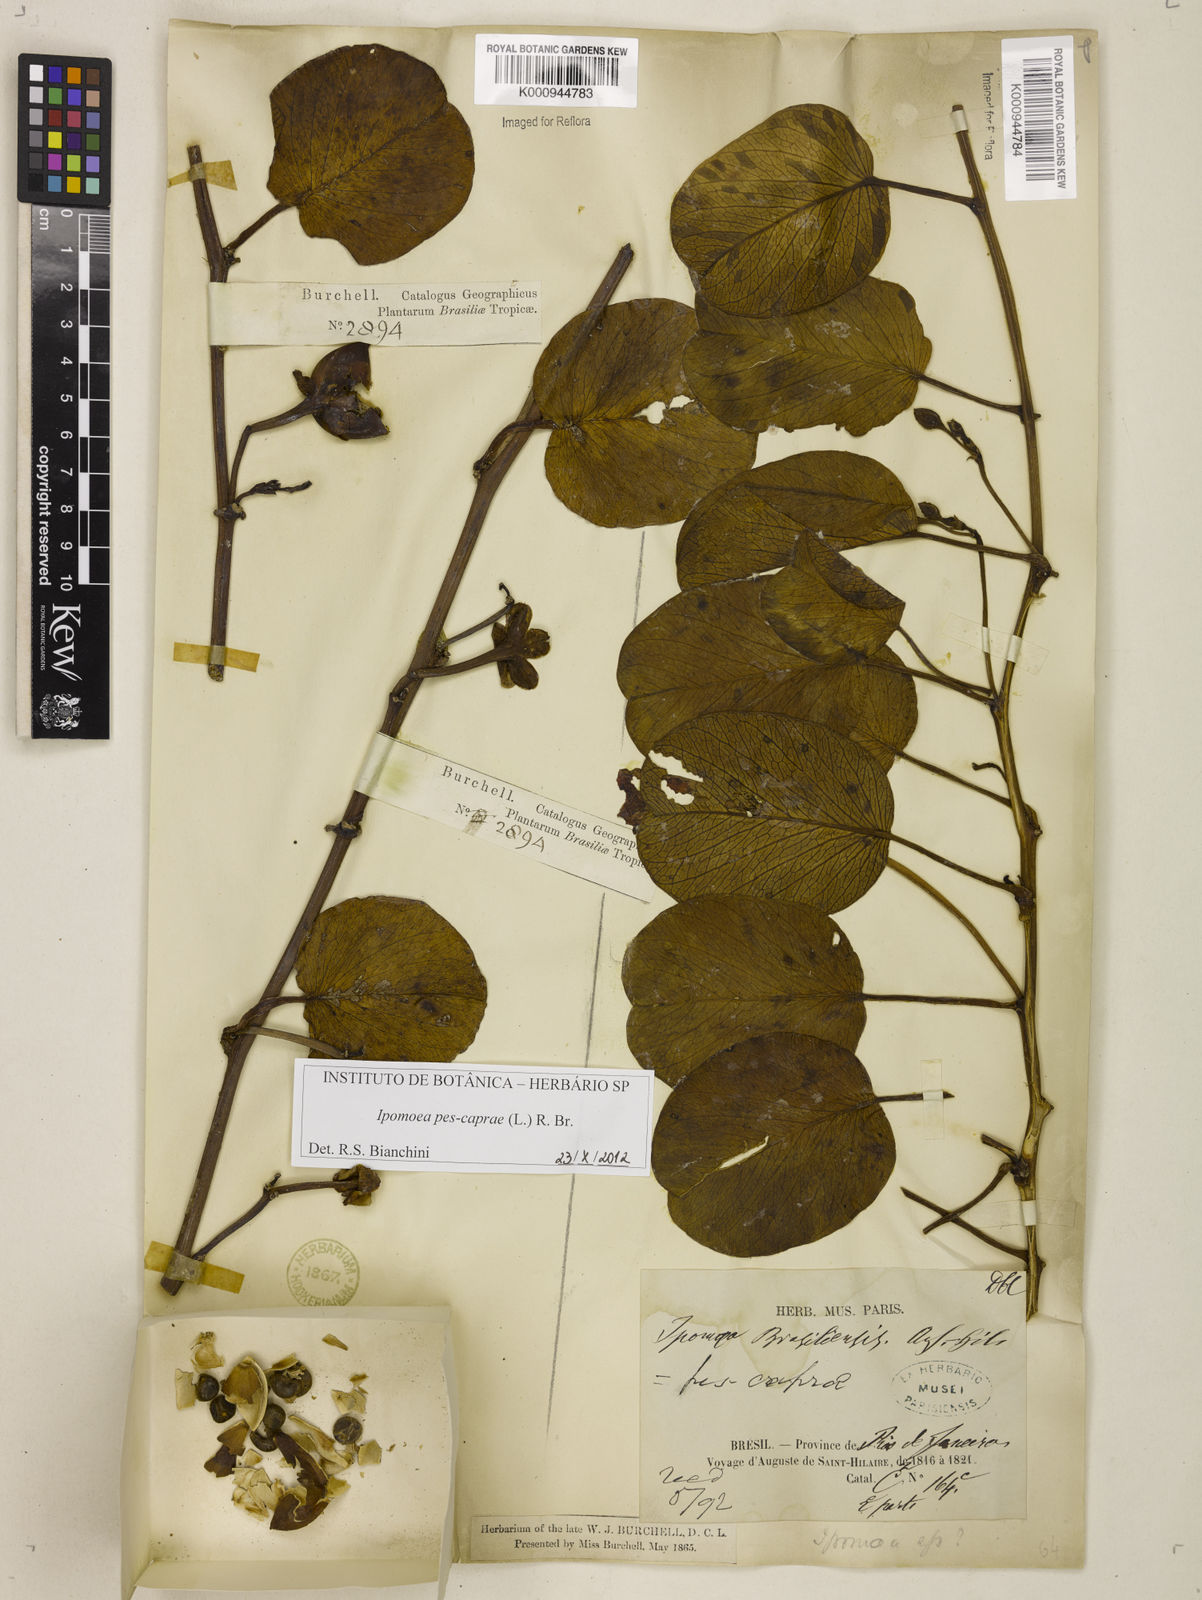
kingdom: Plantae
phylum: Tracheophyta
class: Magnoliopsida
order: Solanales
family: Convolvulaceae
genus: Ipomoea
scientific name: Ipomoea pes-caprae
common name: Beach morning glory
